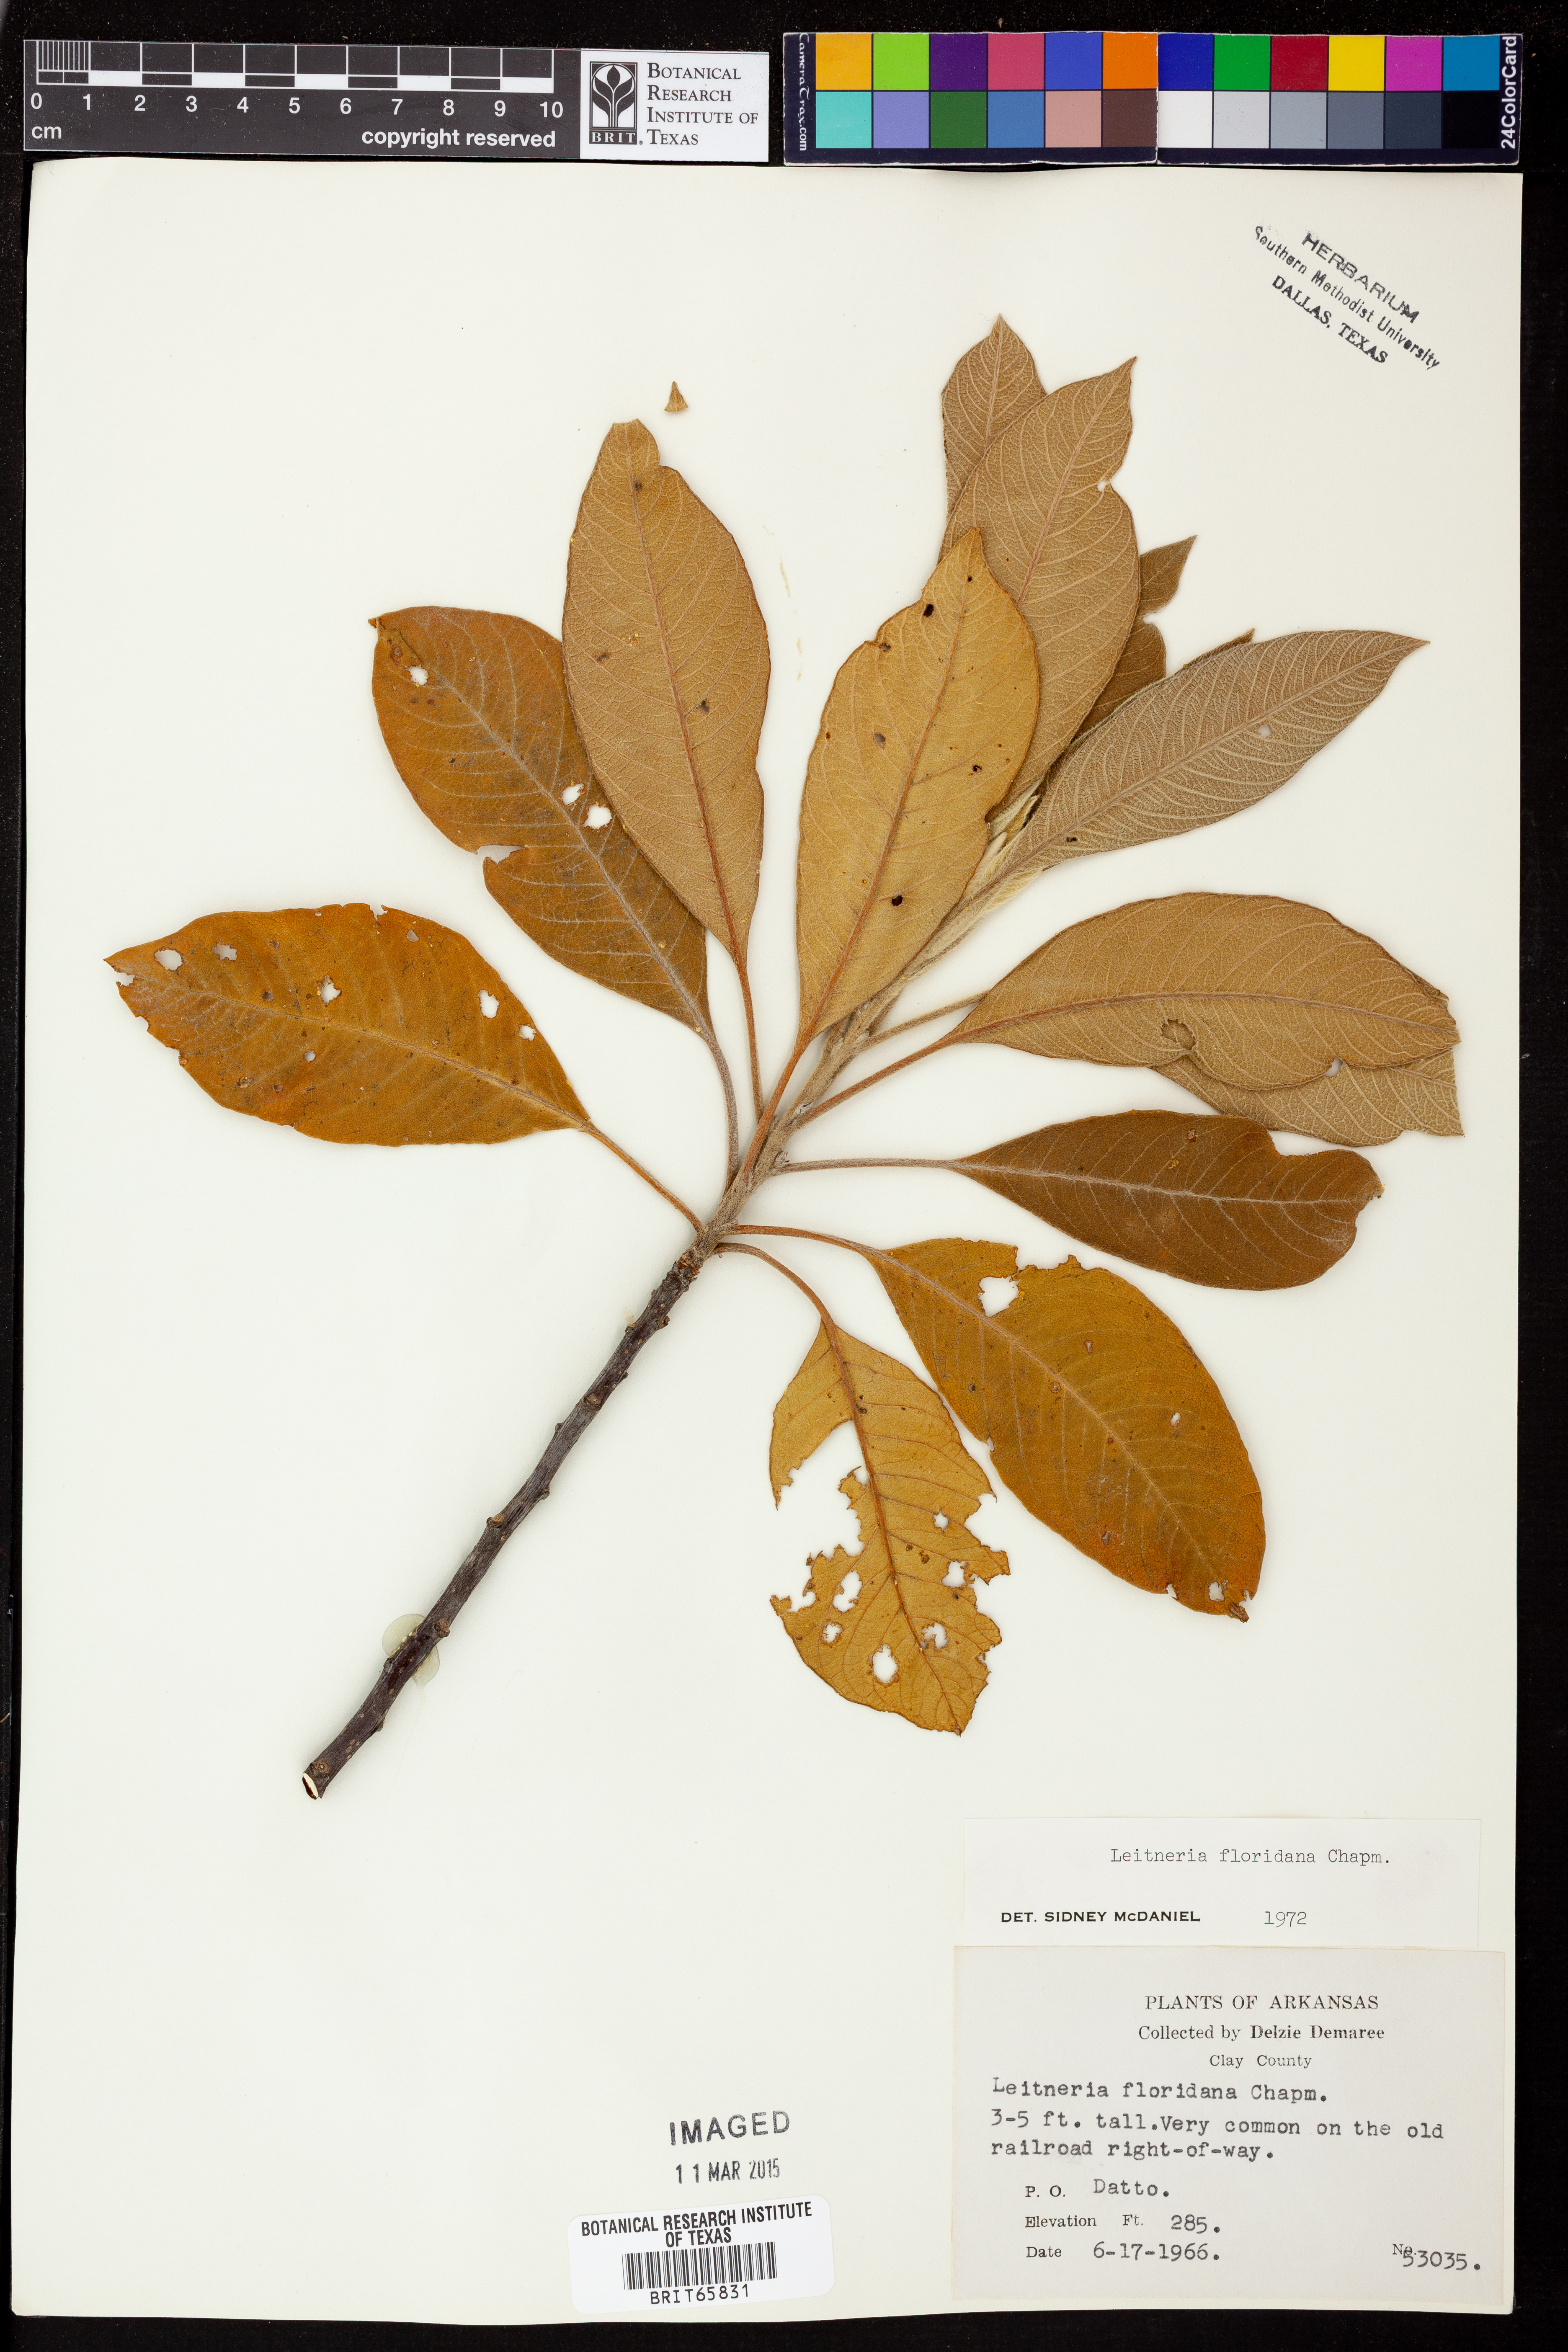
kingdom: Plantae
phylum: Tracheophyta
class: Magnoliopsida
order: Sapindales
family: Simaroubaceae
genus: Leitneria
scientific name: Leitneria floridana
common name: Corkwood
